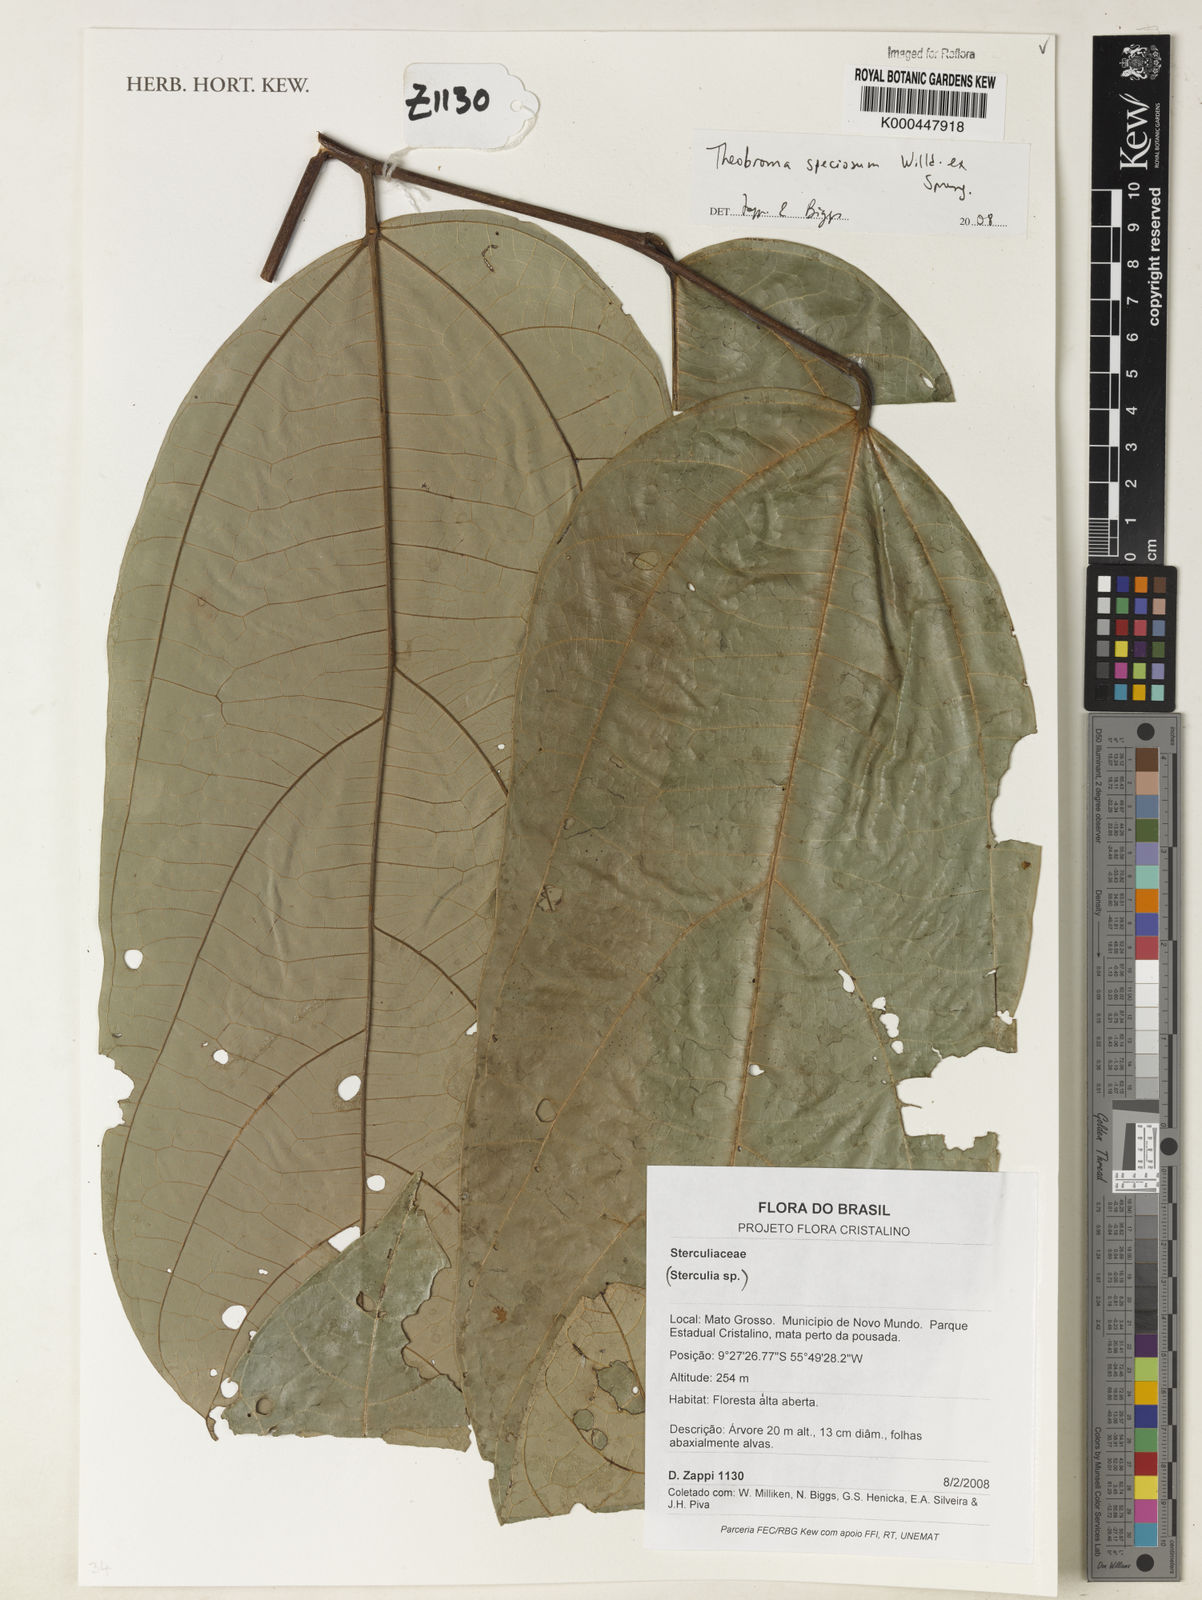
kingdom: Plantae
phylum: Tracheophyta
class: Magnoliopsida
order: Malvales
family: Malvaceae
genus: Theobroma
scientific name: Theobroma speciosum
